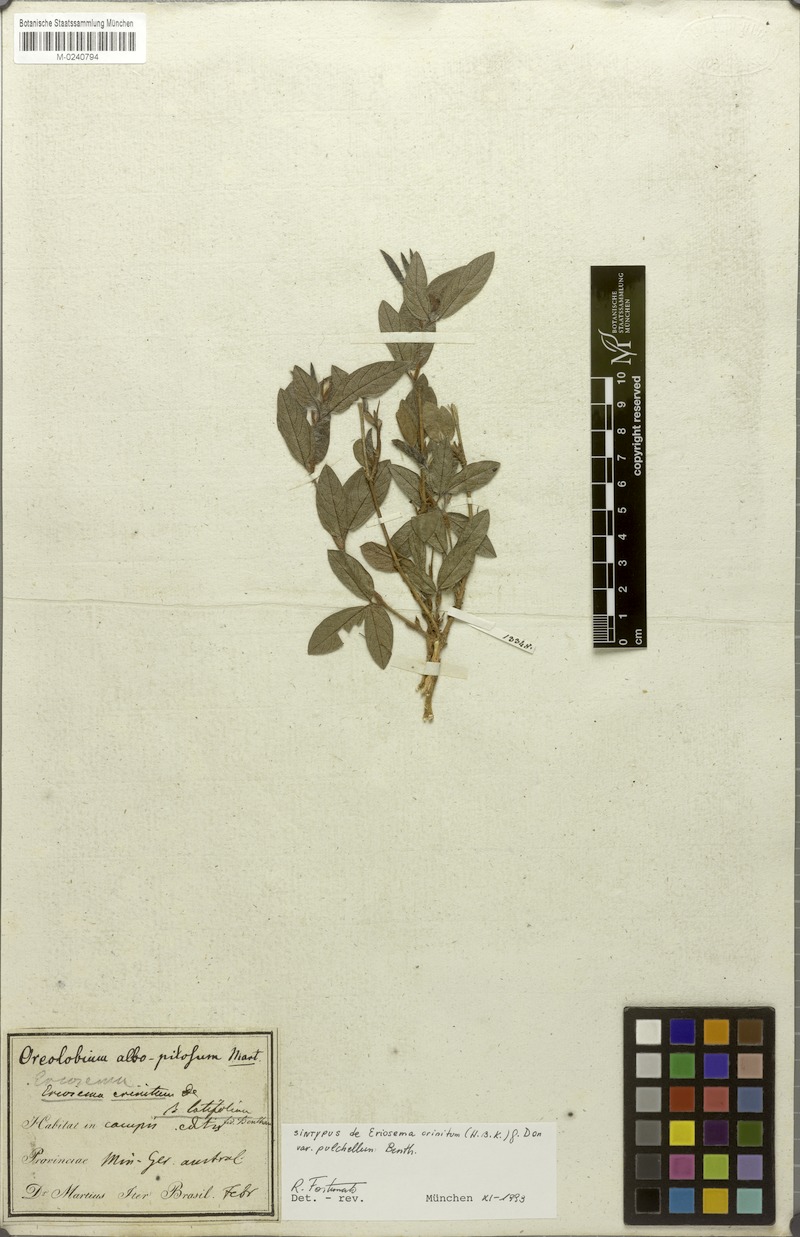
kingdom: Plantae
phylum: Tracheophyta
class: Magnoliopsida
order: Fabales
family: Fabaceae
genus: Eriosema
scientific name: Eriosema crinitum
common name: Sand pea
